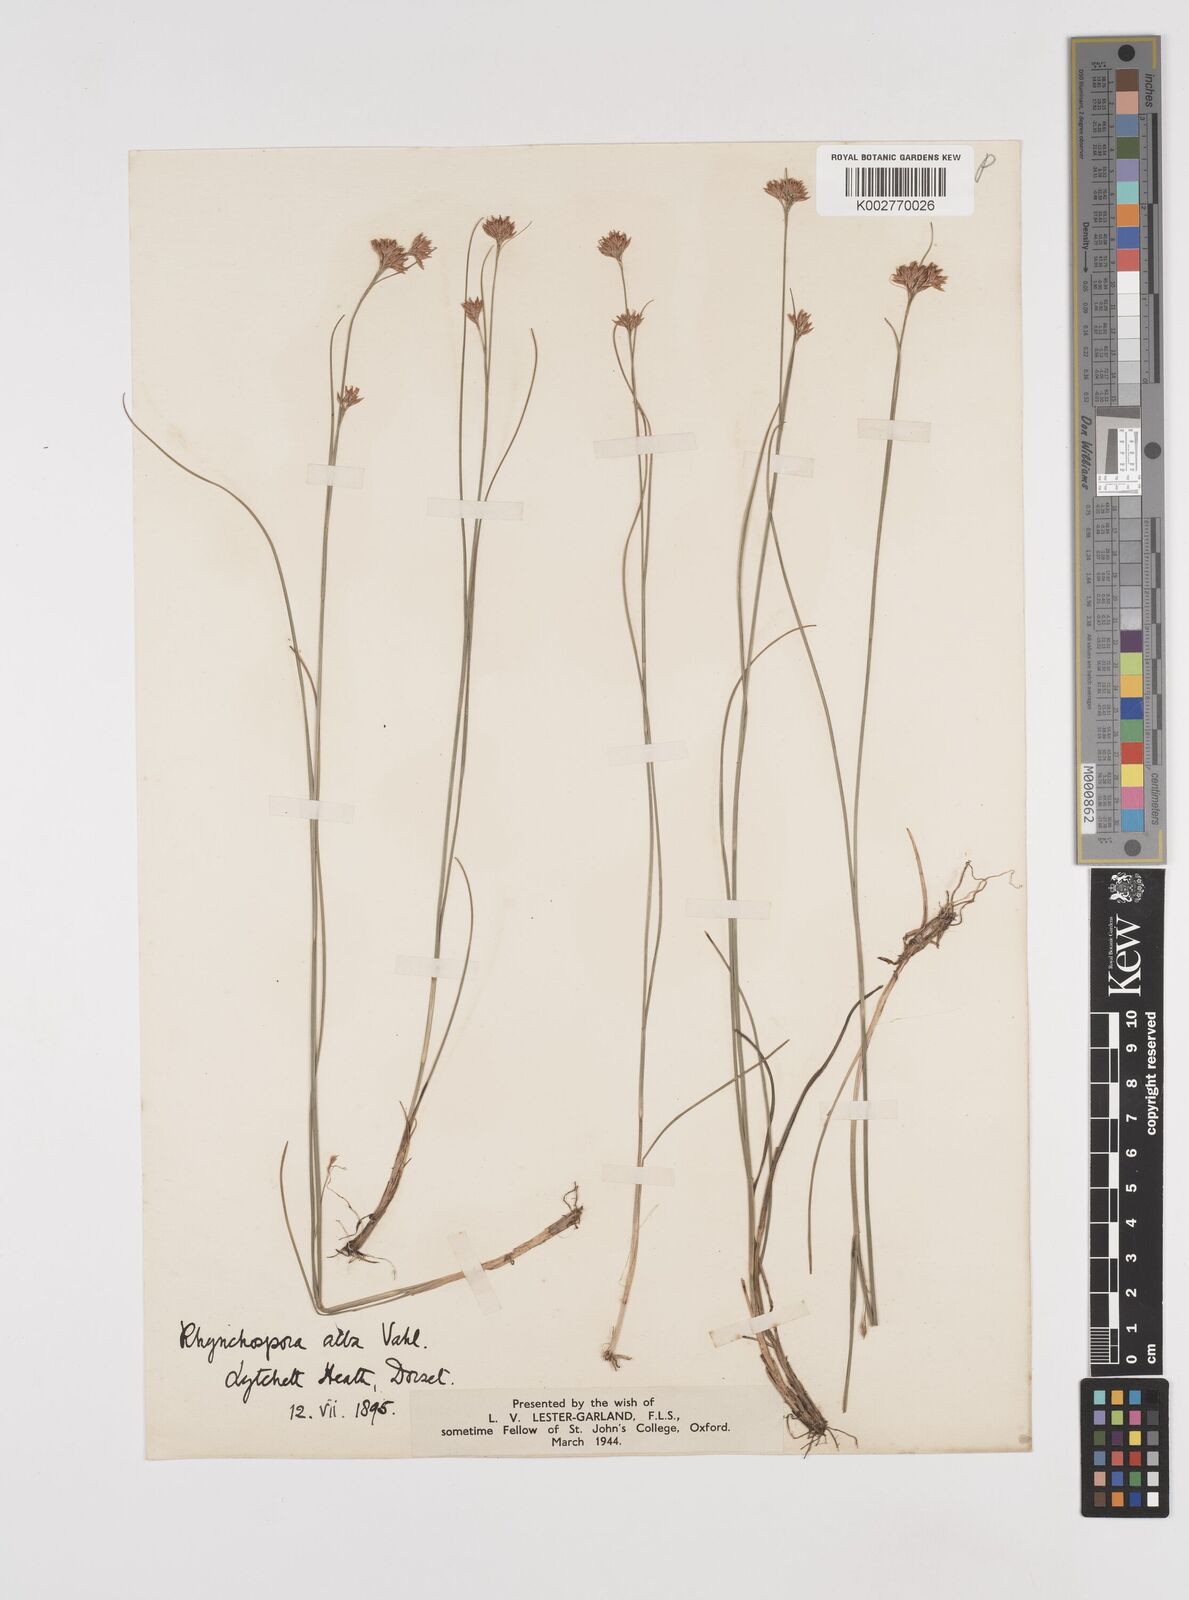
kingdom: Plantae
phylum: Tracheophyta
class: Liliopsida
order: Poales
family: Cyperaceae
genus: Rhynchospora
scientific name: Rhynchospora alba
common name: White beak-sedge
